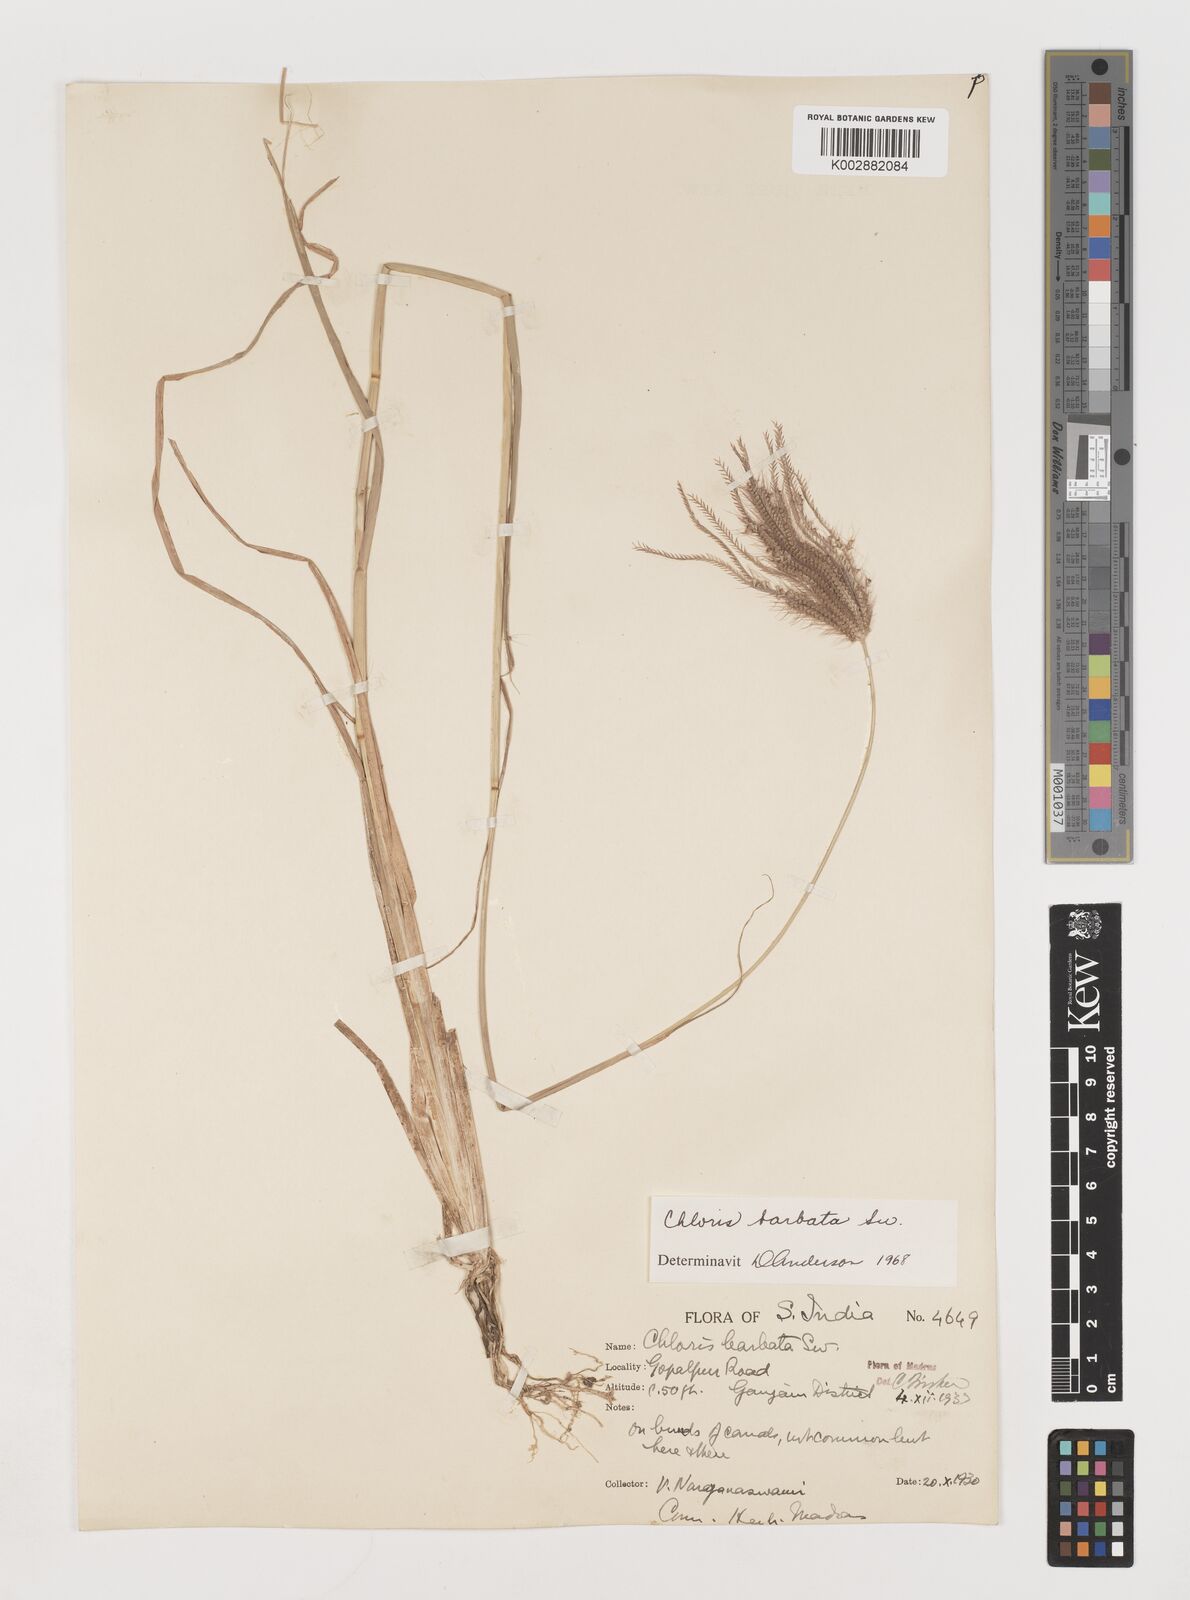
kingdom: Plantae
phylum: Tracheophyta
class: Liliopsida
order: Poales
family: Poaceae
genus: Chloris
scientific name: Chloris barbata
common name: Swollen fingergrass
